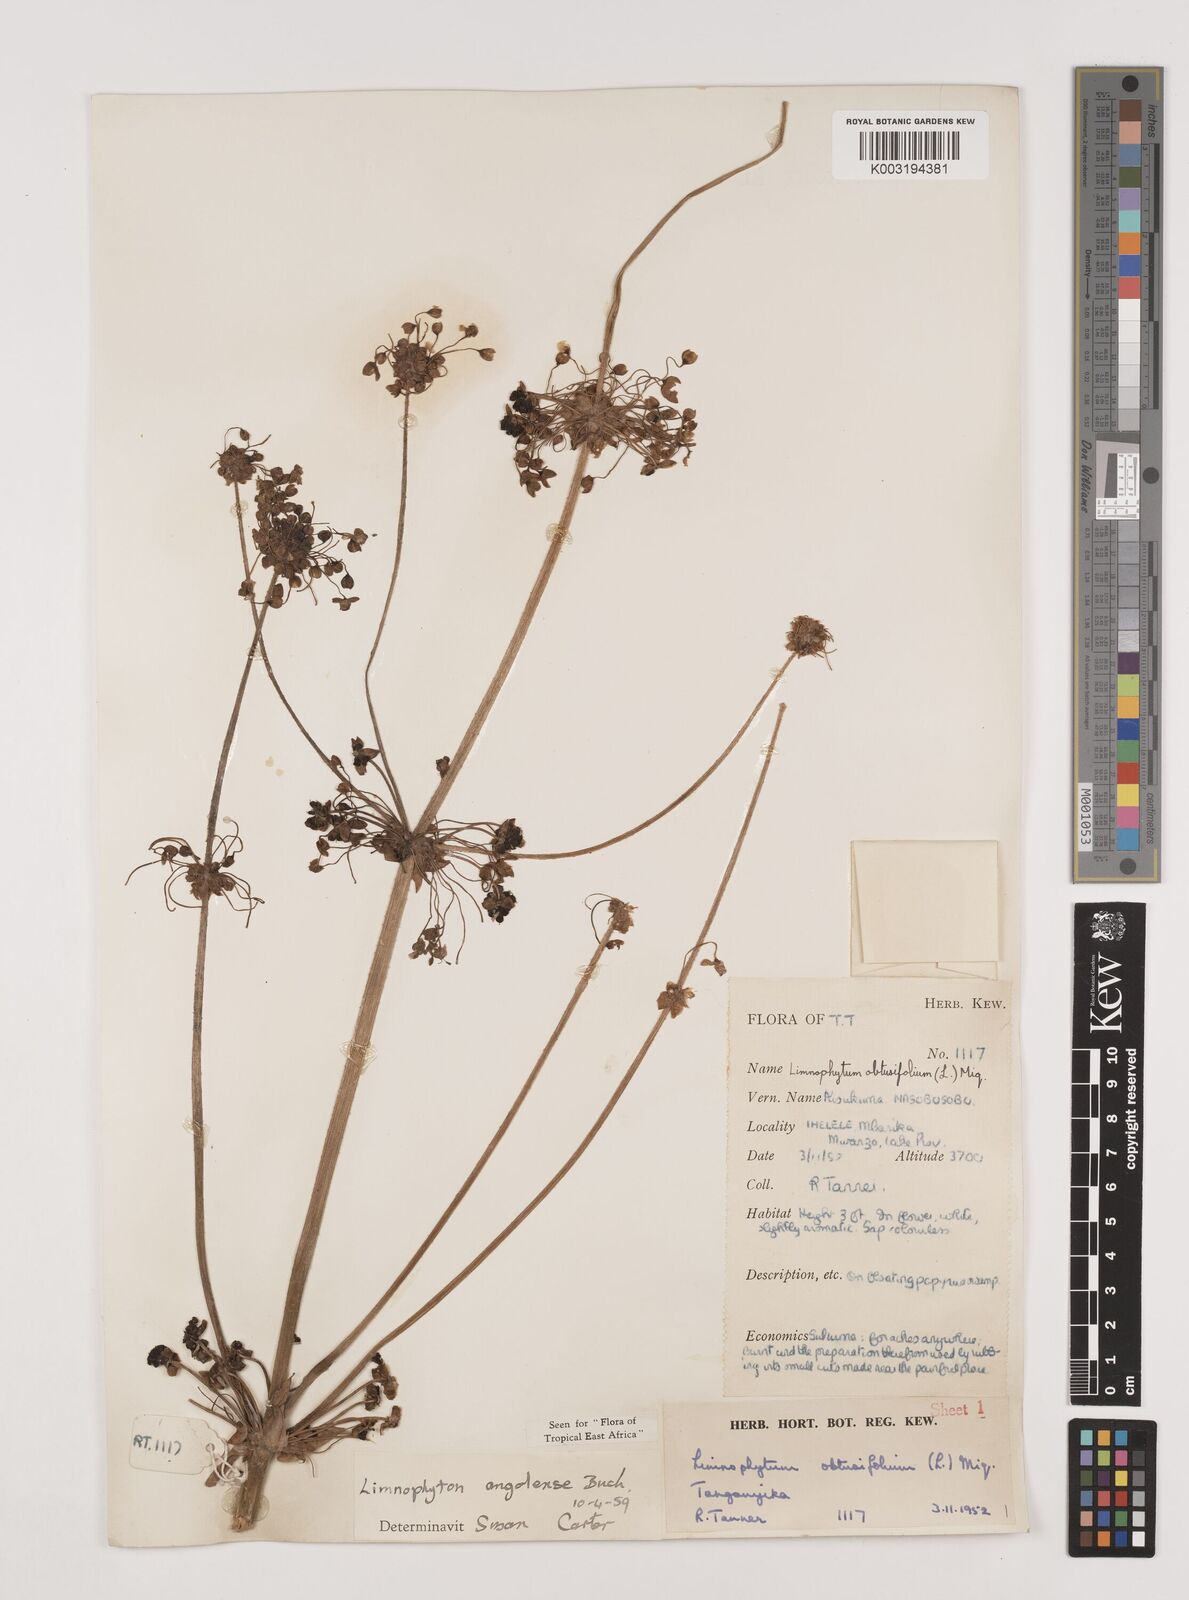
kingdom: Plantae
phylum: Tracheophyta
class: Liliopsida
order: Alismatales
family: Alismataceae
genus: Limnophyton
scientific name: Limnophyton angolense
